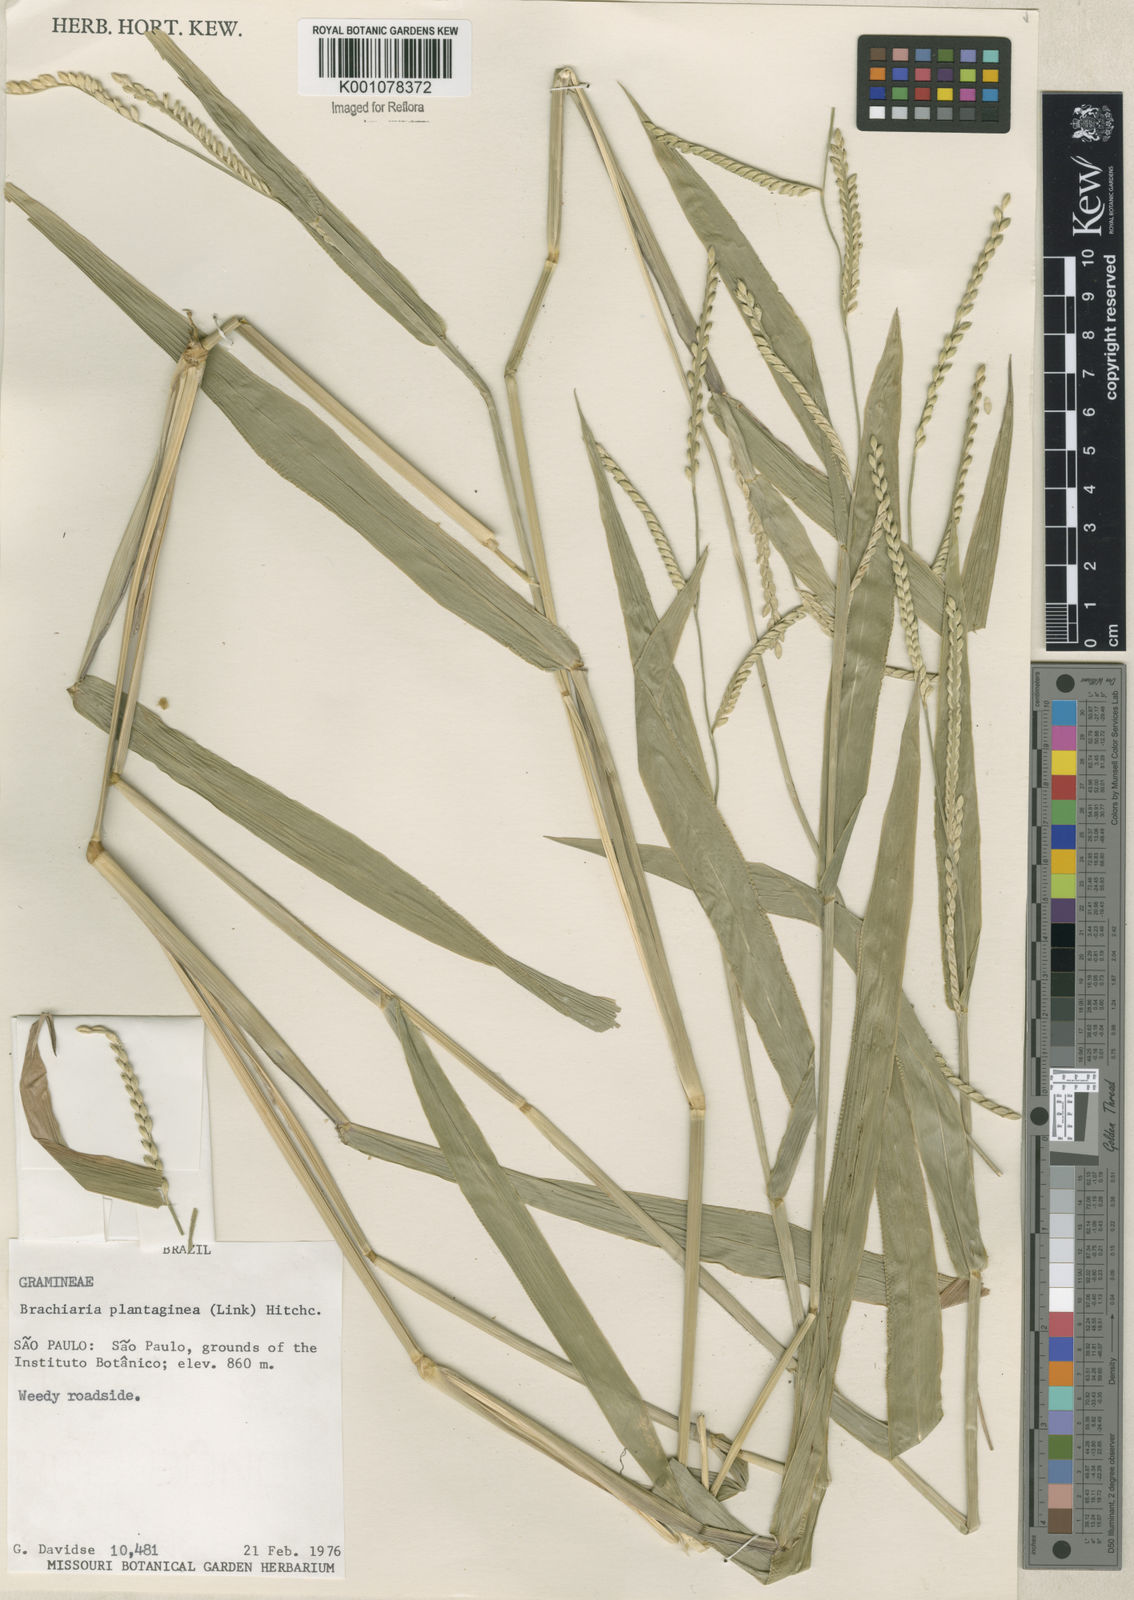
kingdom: Plantae
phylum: Tracheophyta
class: Liliopsida
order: Poales
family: Poaceae
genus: Urochloa
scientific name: Urochloa plantaginea
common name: Plantain signalgrass
